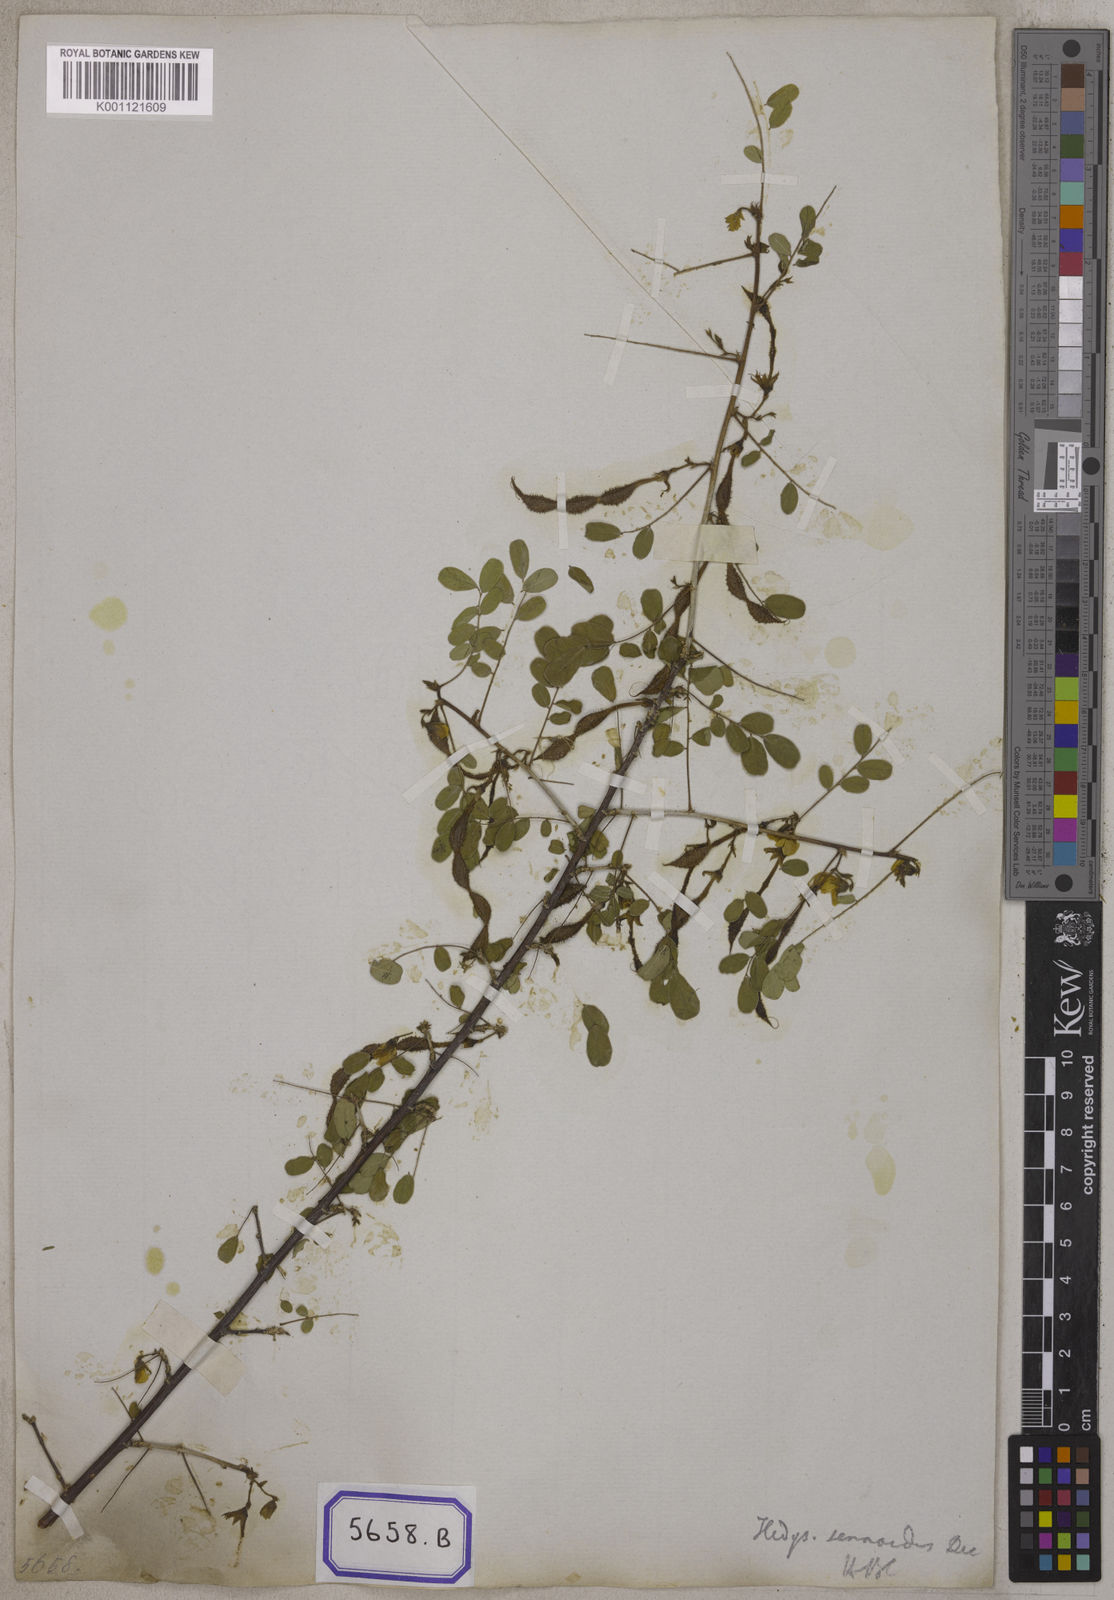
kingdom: Plantae
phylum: Tracheophyta
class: Magnoliopsida
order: Fabales
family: Fabaceae
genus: Ormocarpum
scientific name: Ormocarpum sennoides
